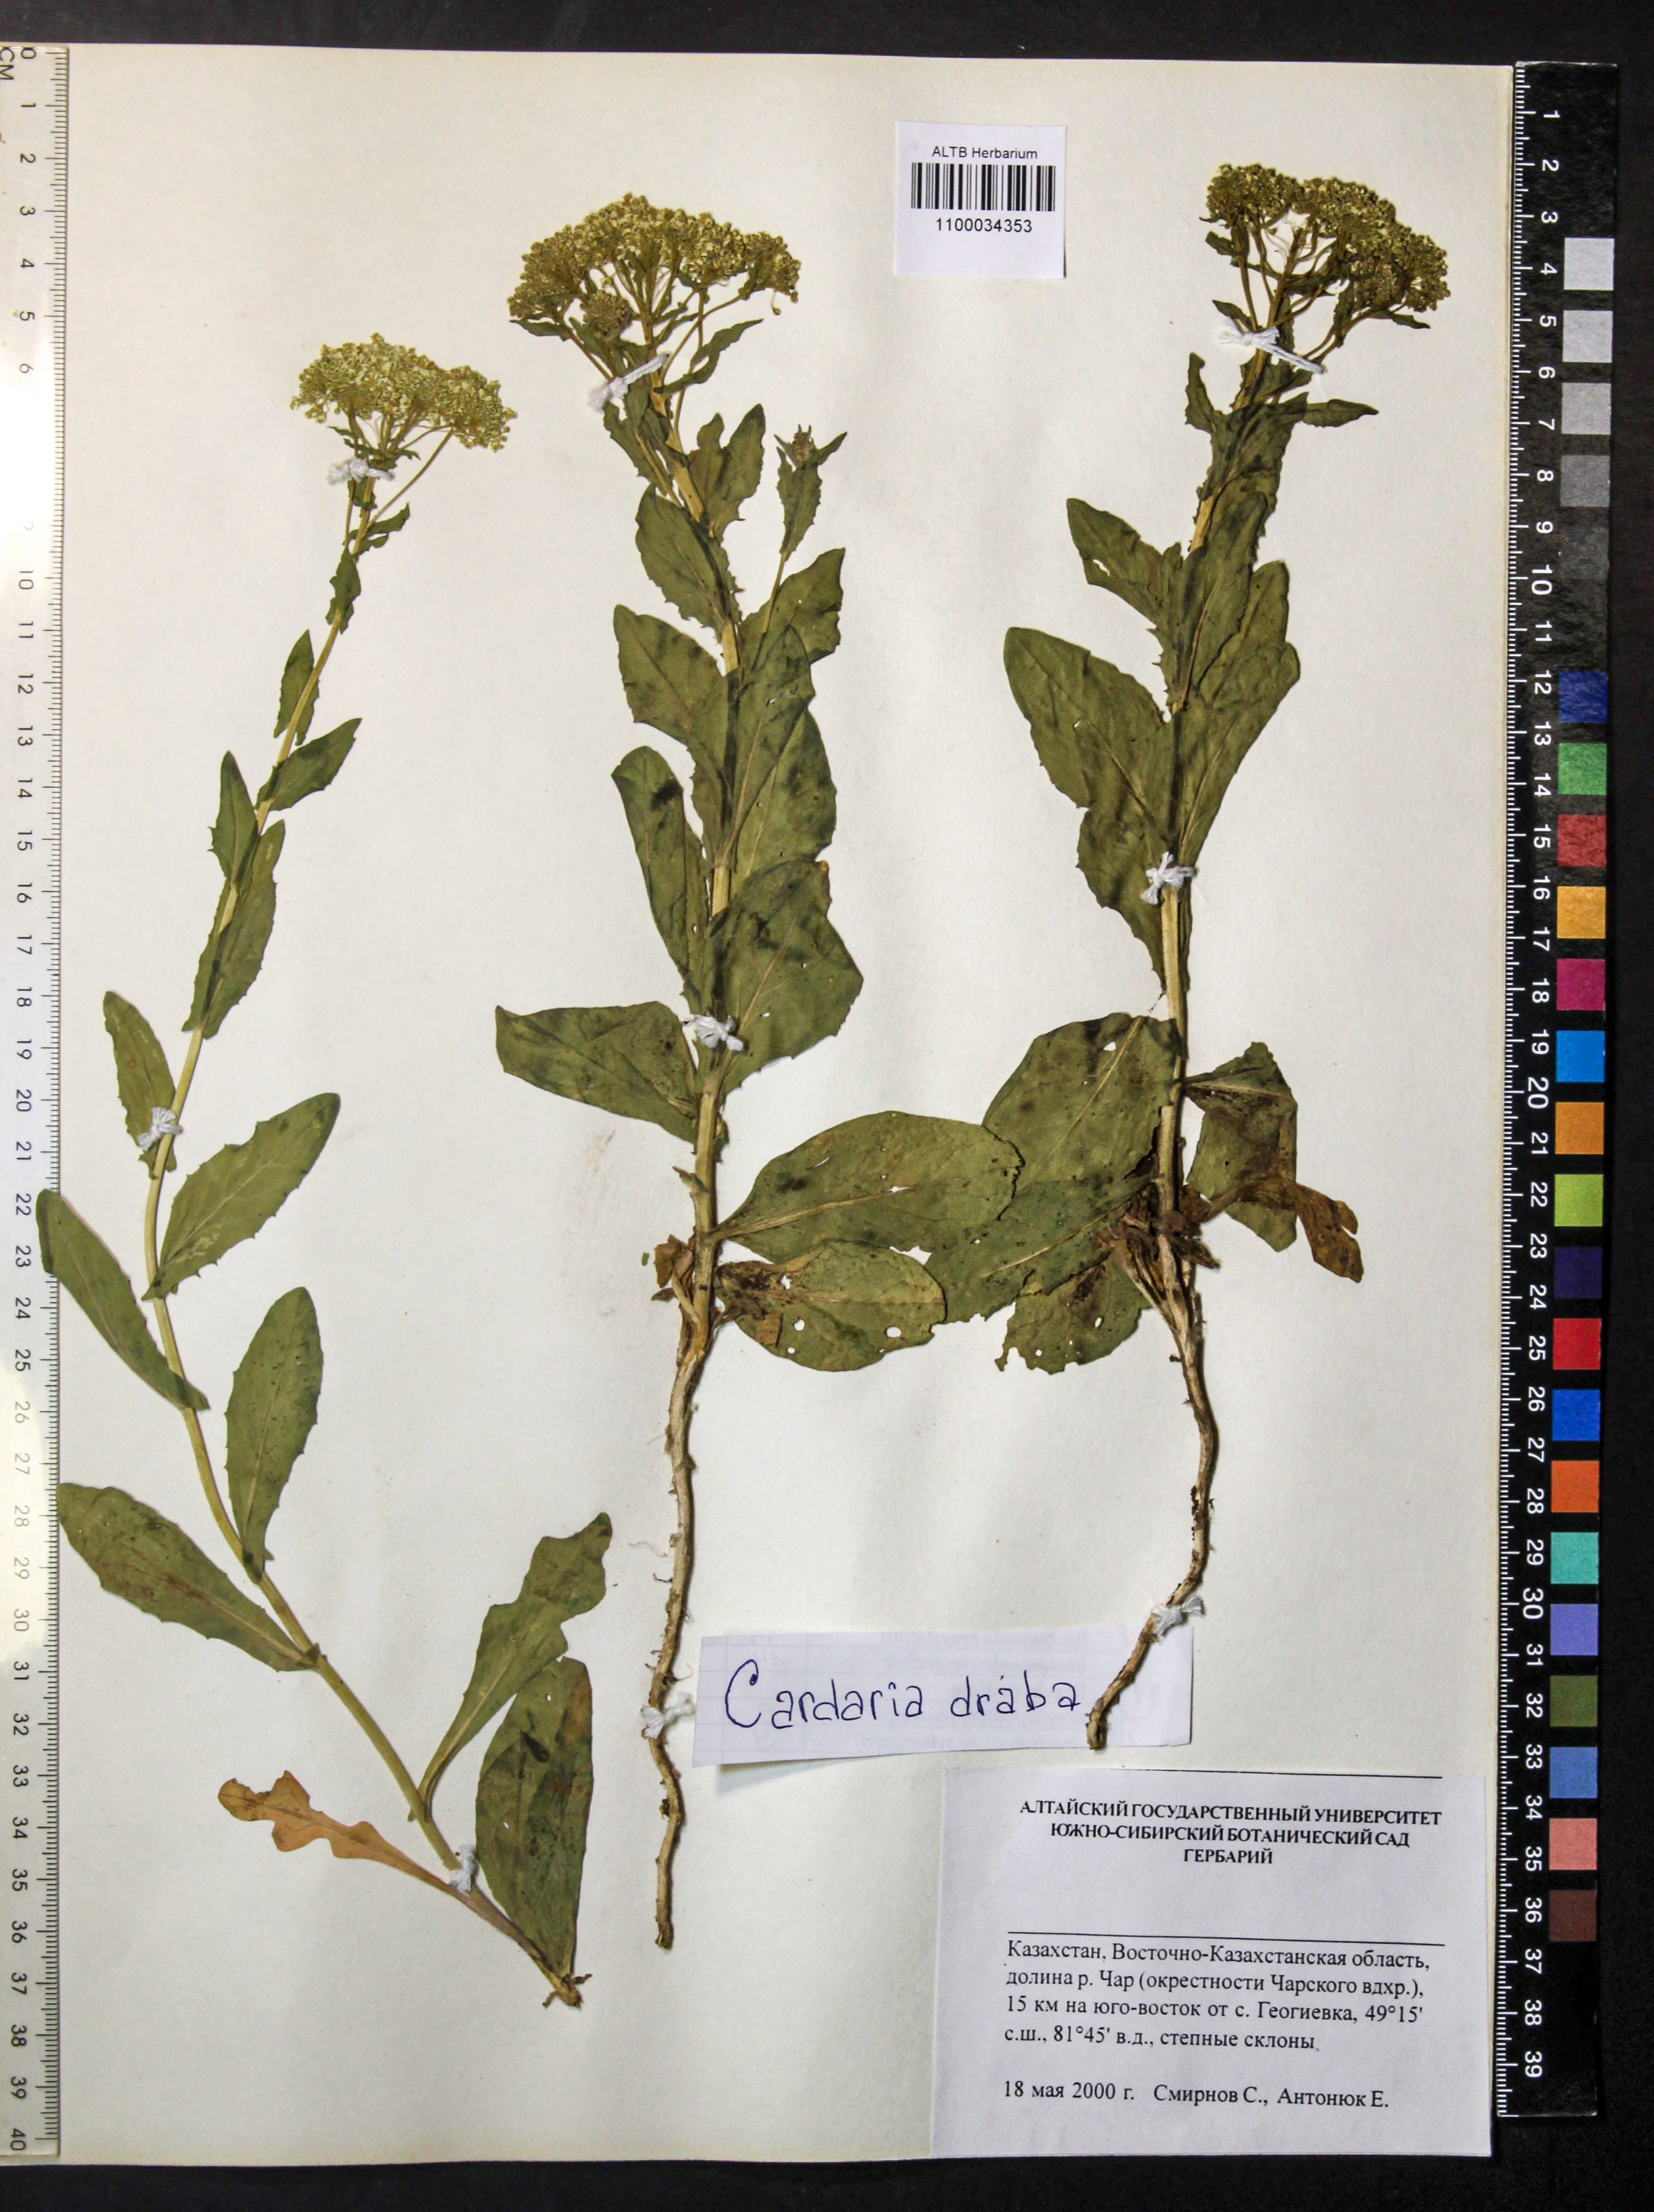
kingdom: Plantae
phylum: Tracheophyta
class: Magnoliopsida
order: Brassicales
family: Brassicaceae
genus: Lepidium
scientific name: Lepidium draba
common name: Hoary cress
